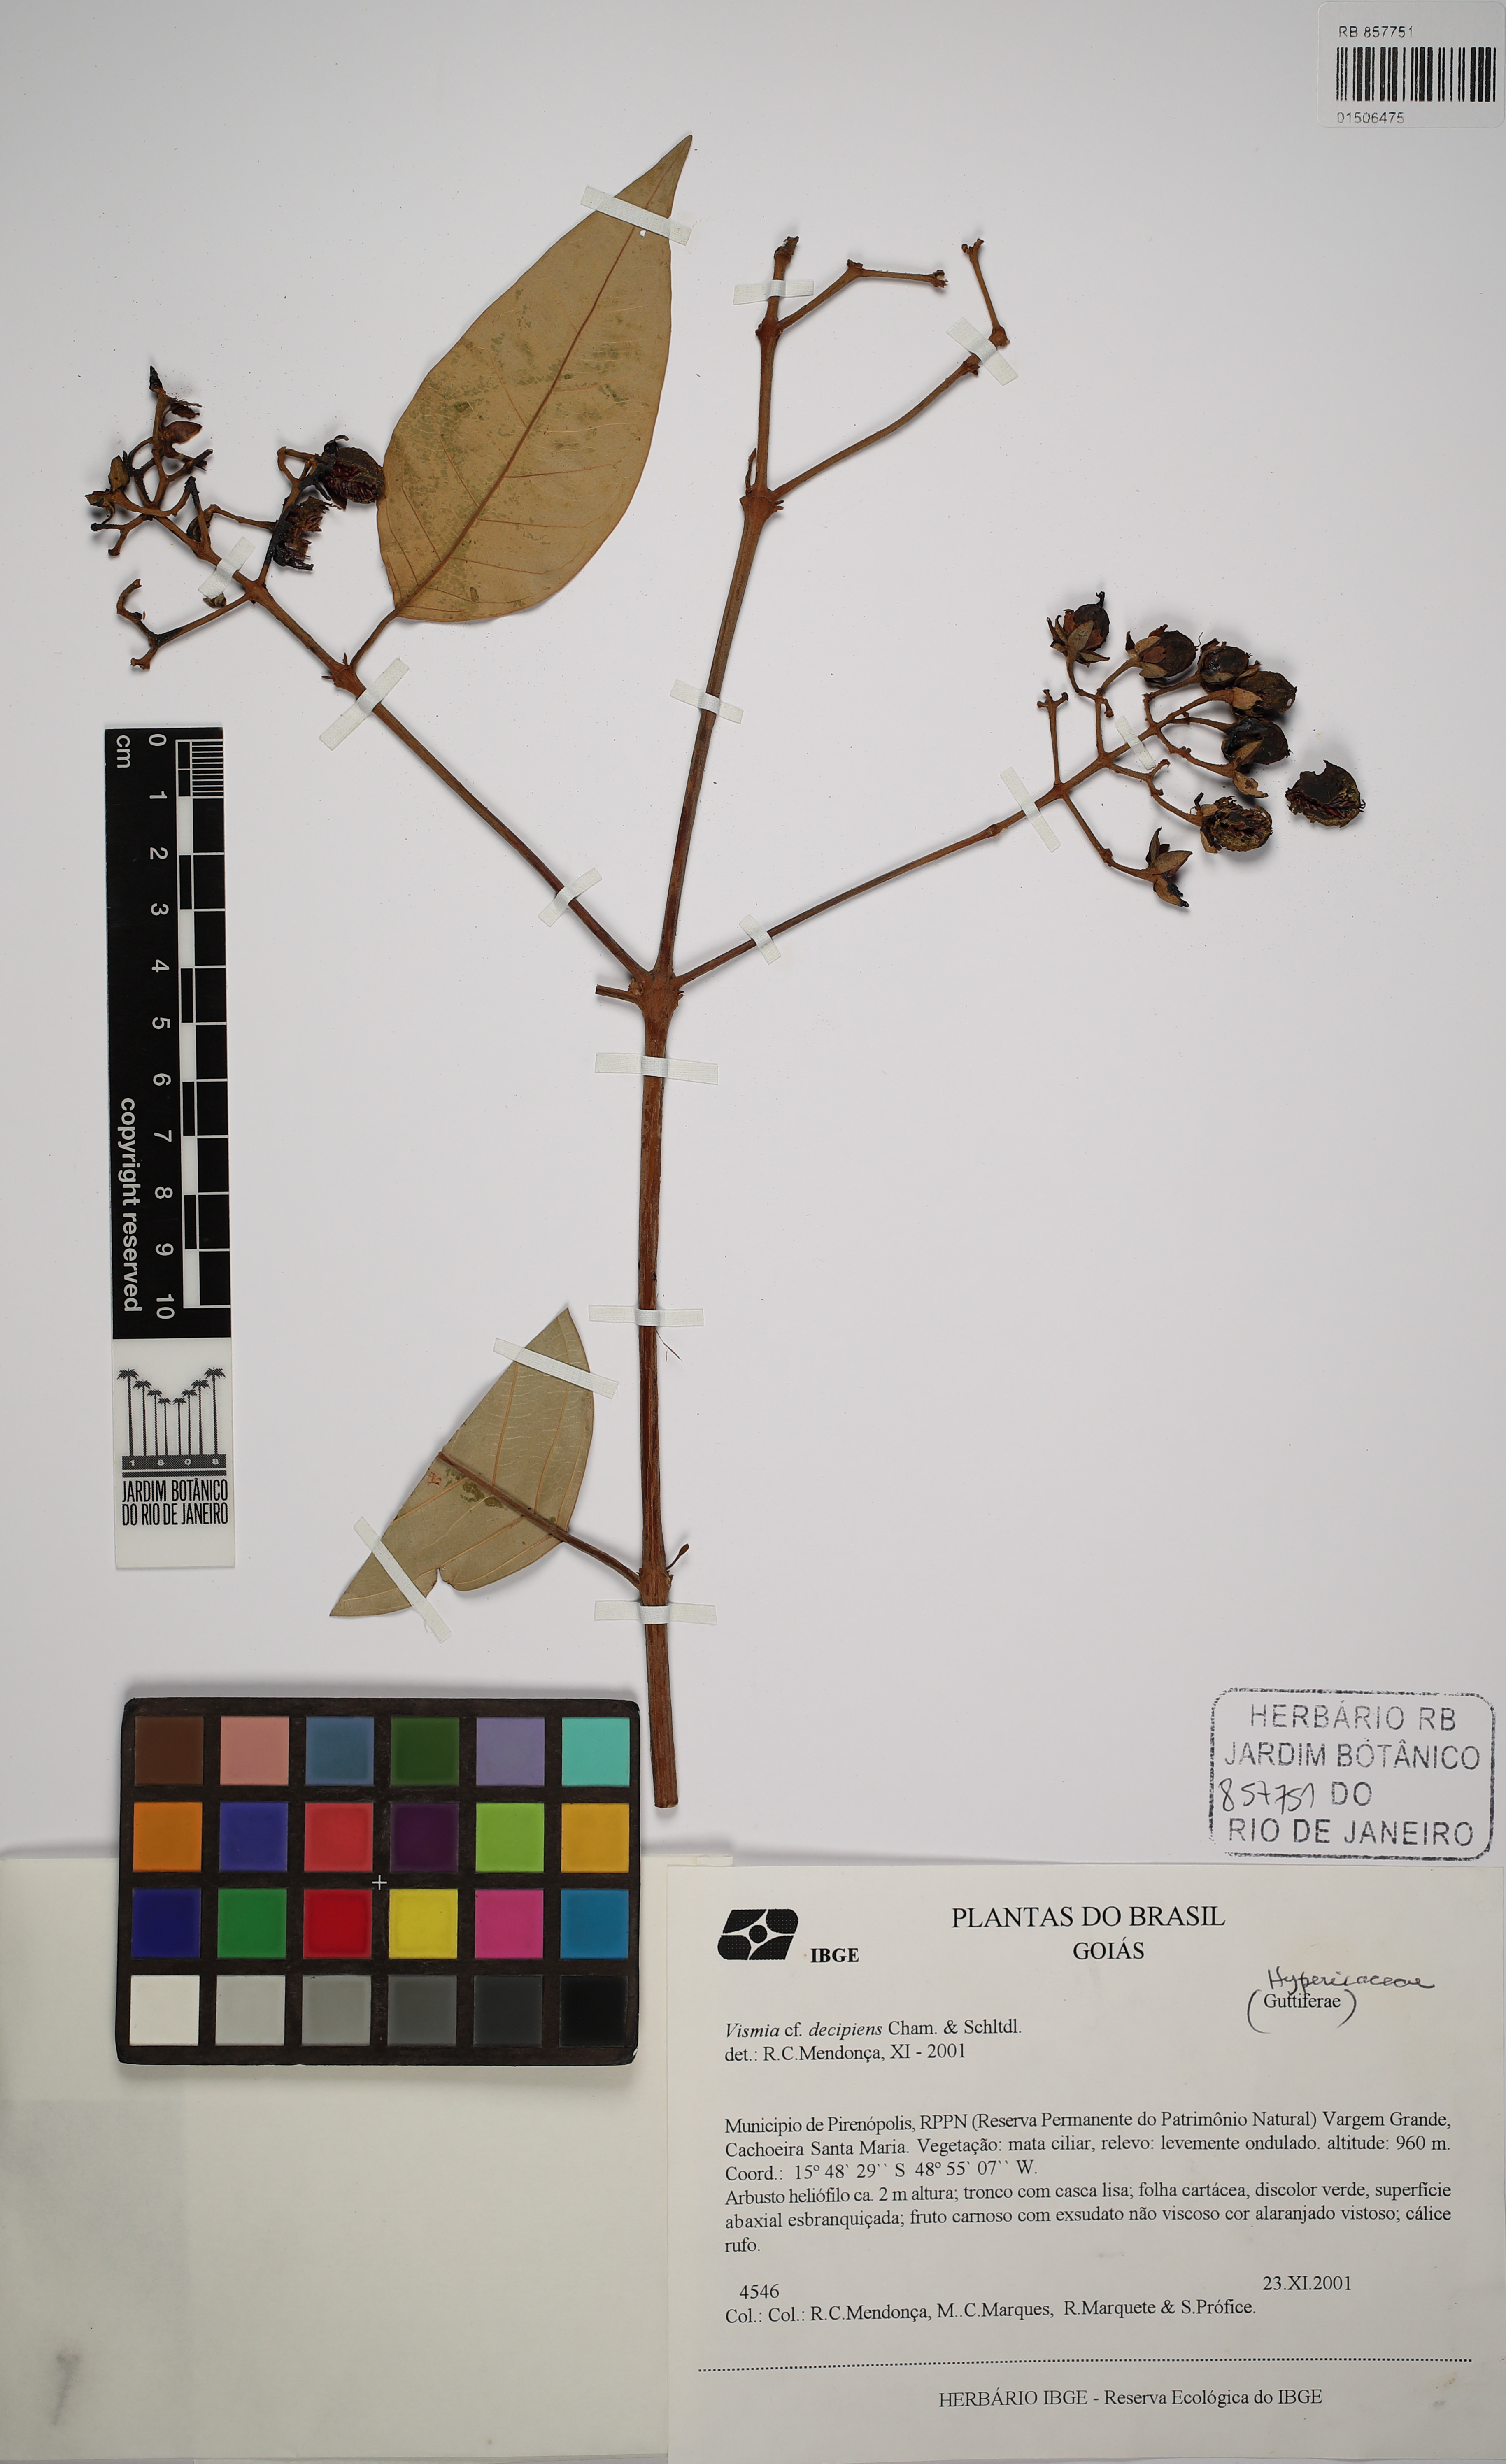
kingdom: Plantae
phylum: Tracheophyta
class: Magnoliopsida
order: Malpighiales
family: Hypericaceae
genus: Vismia
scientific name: Vismia pentagyna
